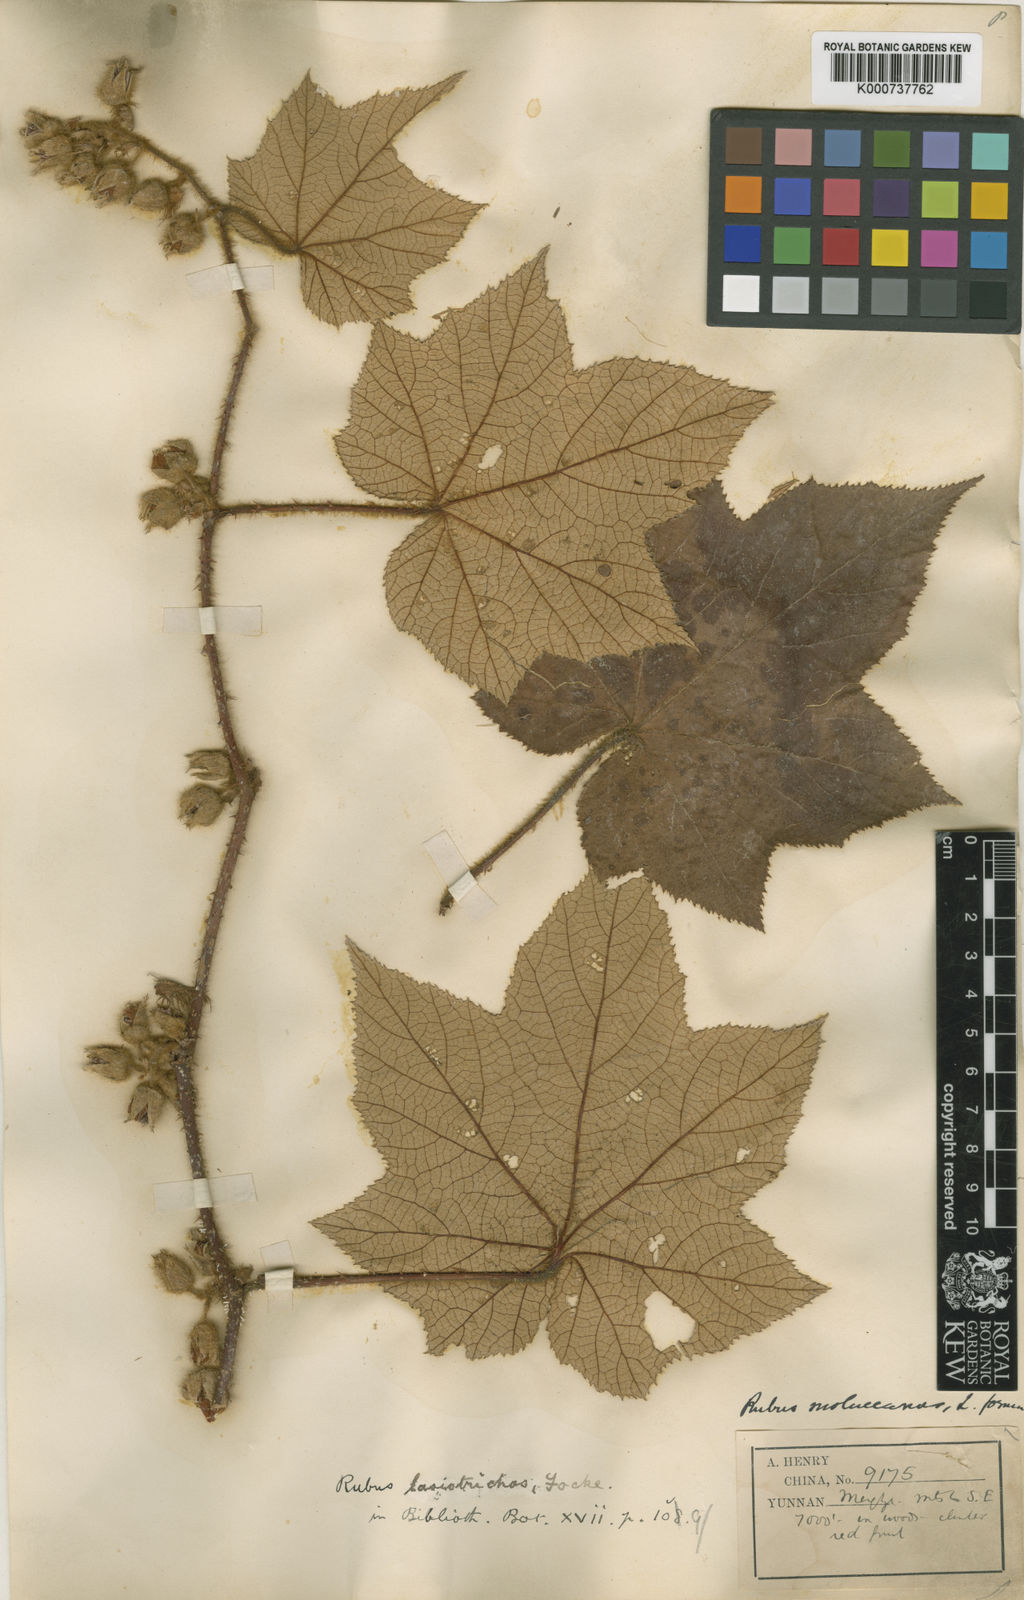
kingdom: Plantae
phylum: Tracheophyta
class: Magnoliopsida
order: Rosales
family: Rosaceae
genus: Rubus
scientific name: Rubus lasiotrichos
